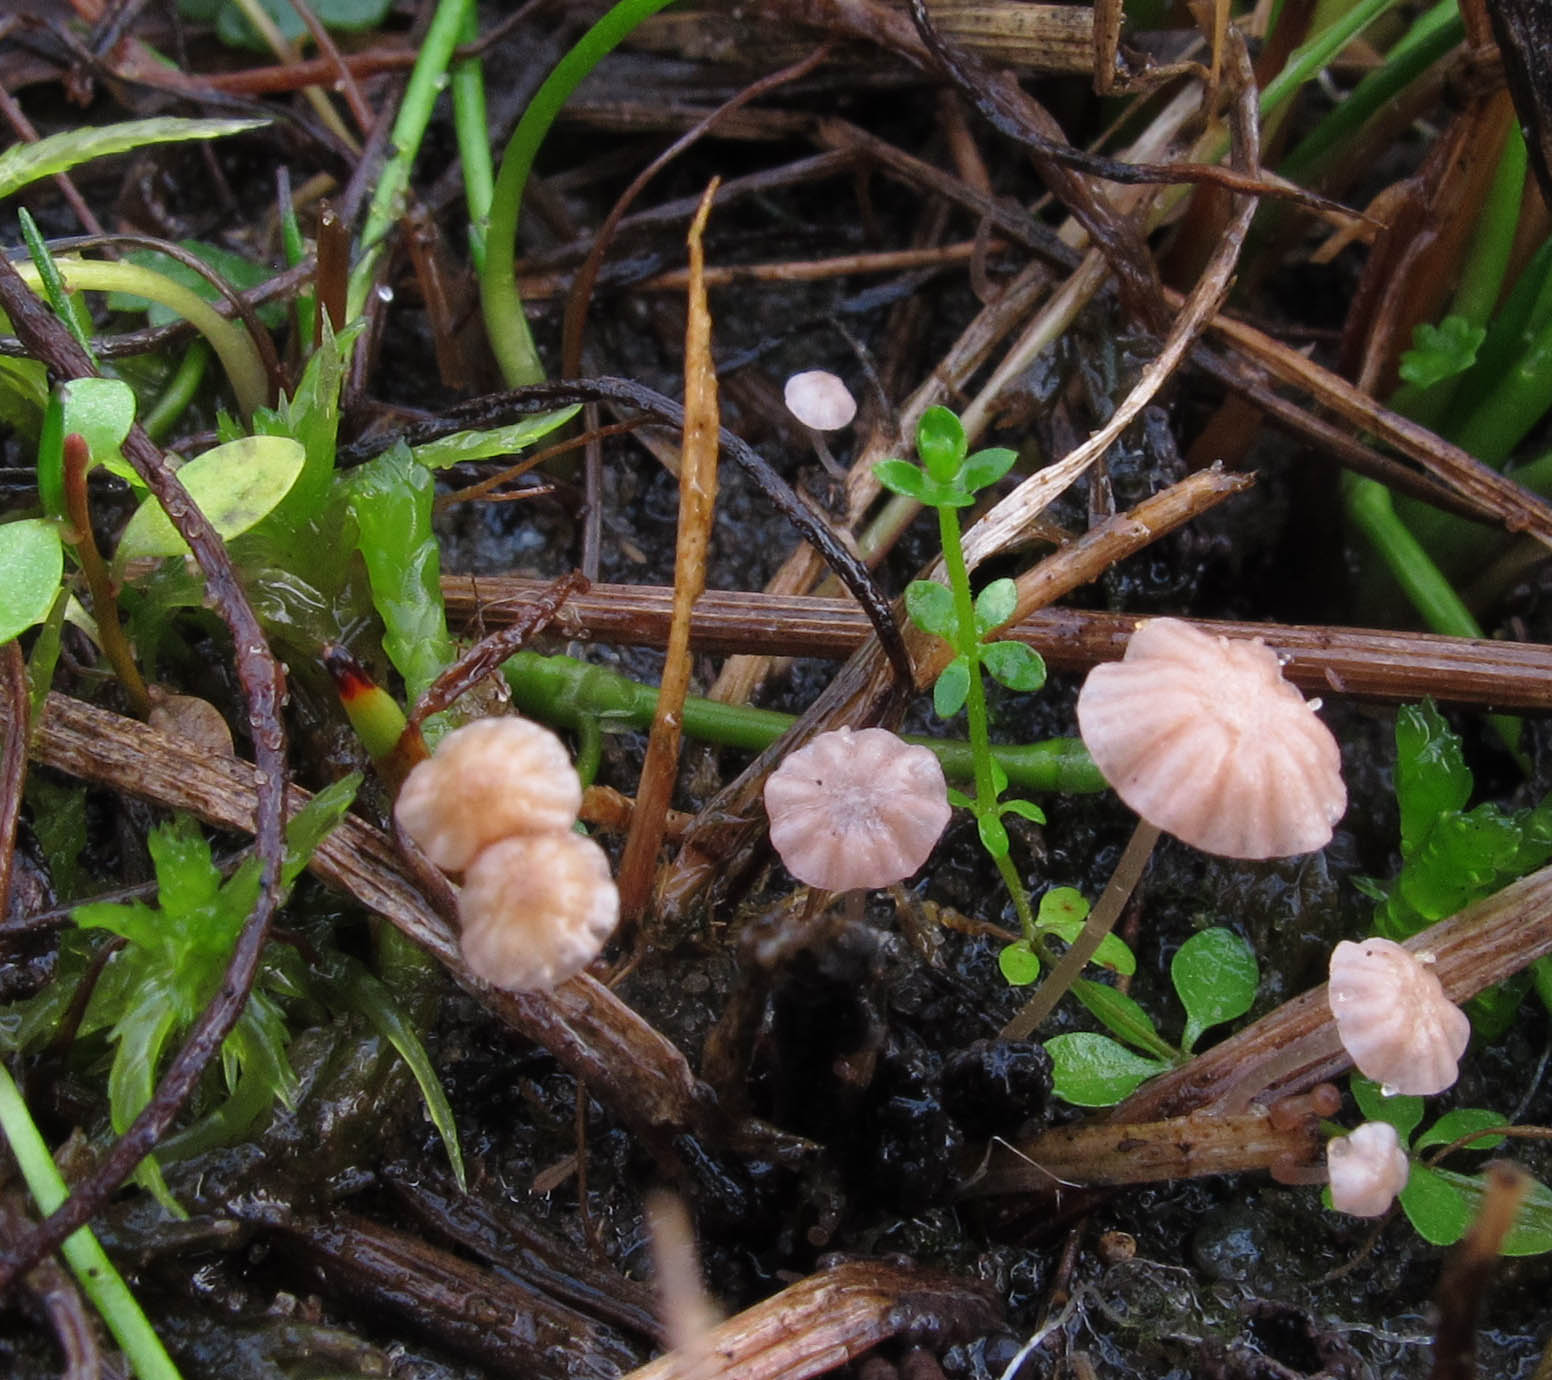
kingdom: Fungi
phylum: Basidiomycota
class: Agaricomycetes
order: Agaricales
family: Mycenaceae
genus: Mycena
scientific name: Mycena tubarioides
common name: mose-huesvamp
